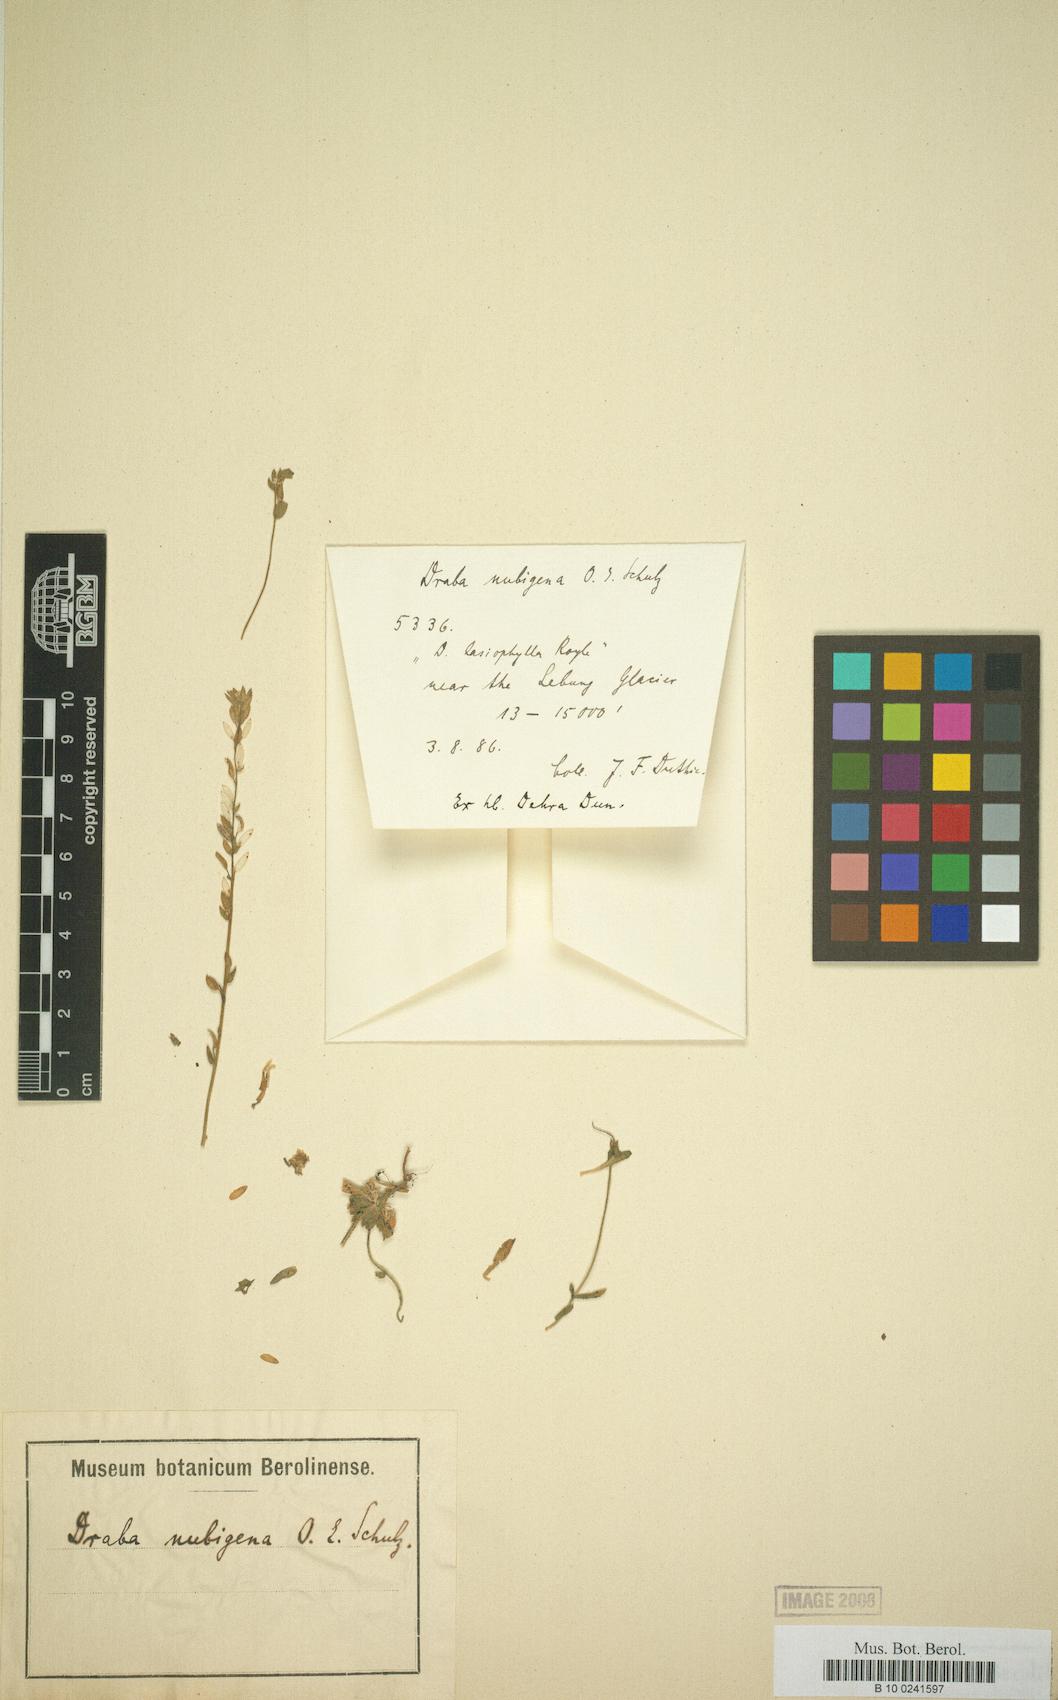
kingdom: Plantae
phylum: Tracheophyta
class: Magnoliopsida
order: Brassicales
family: Brassicaceae
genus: Draba
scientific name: Draba lasiophylla
